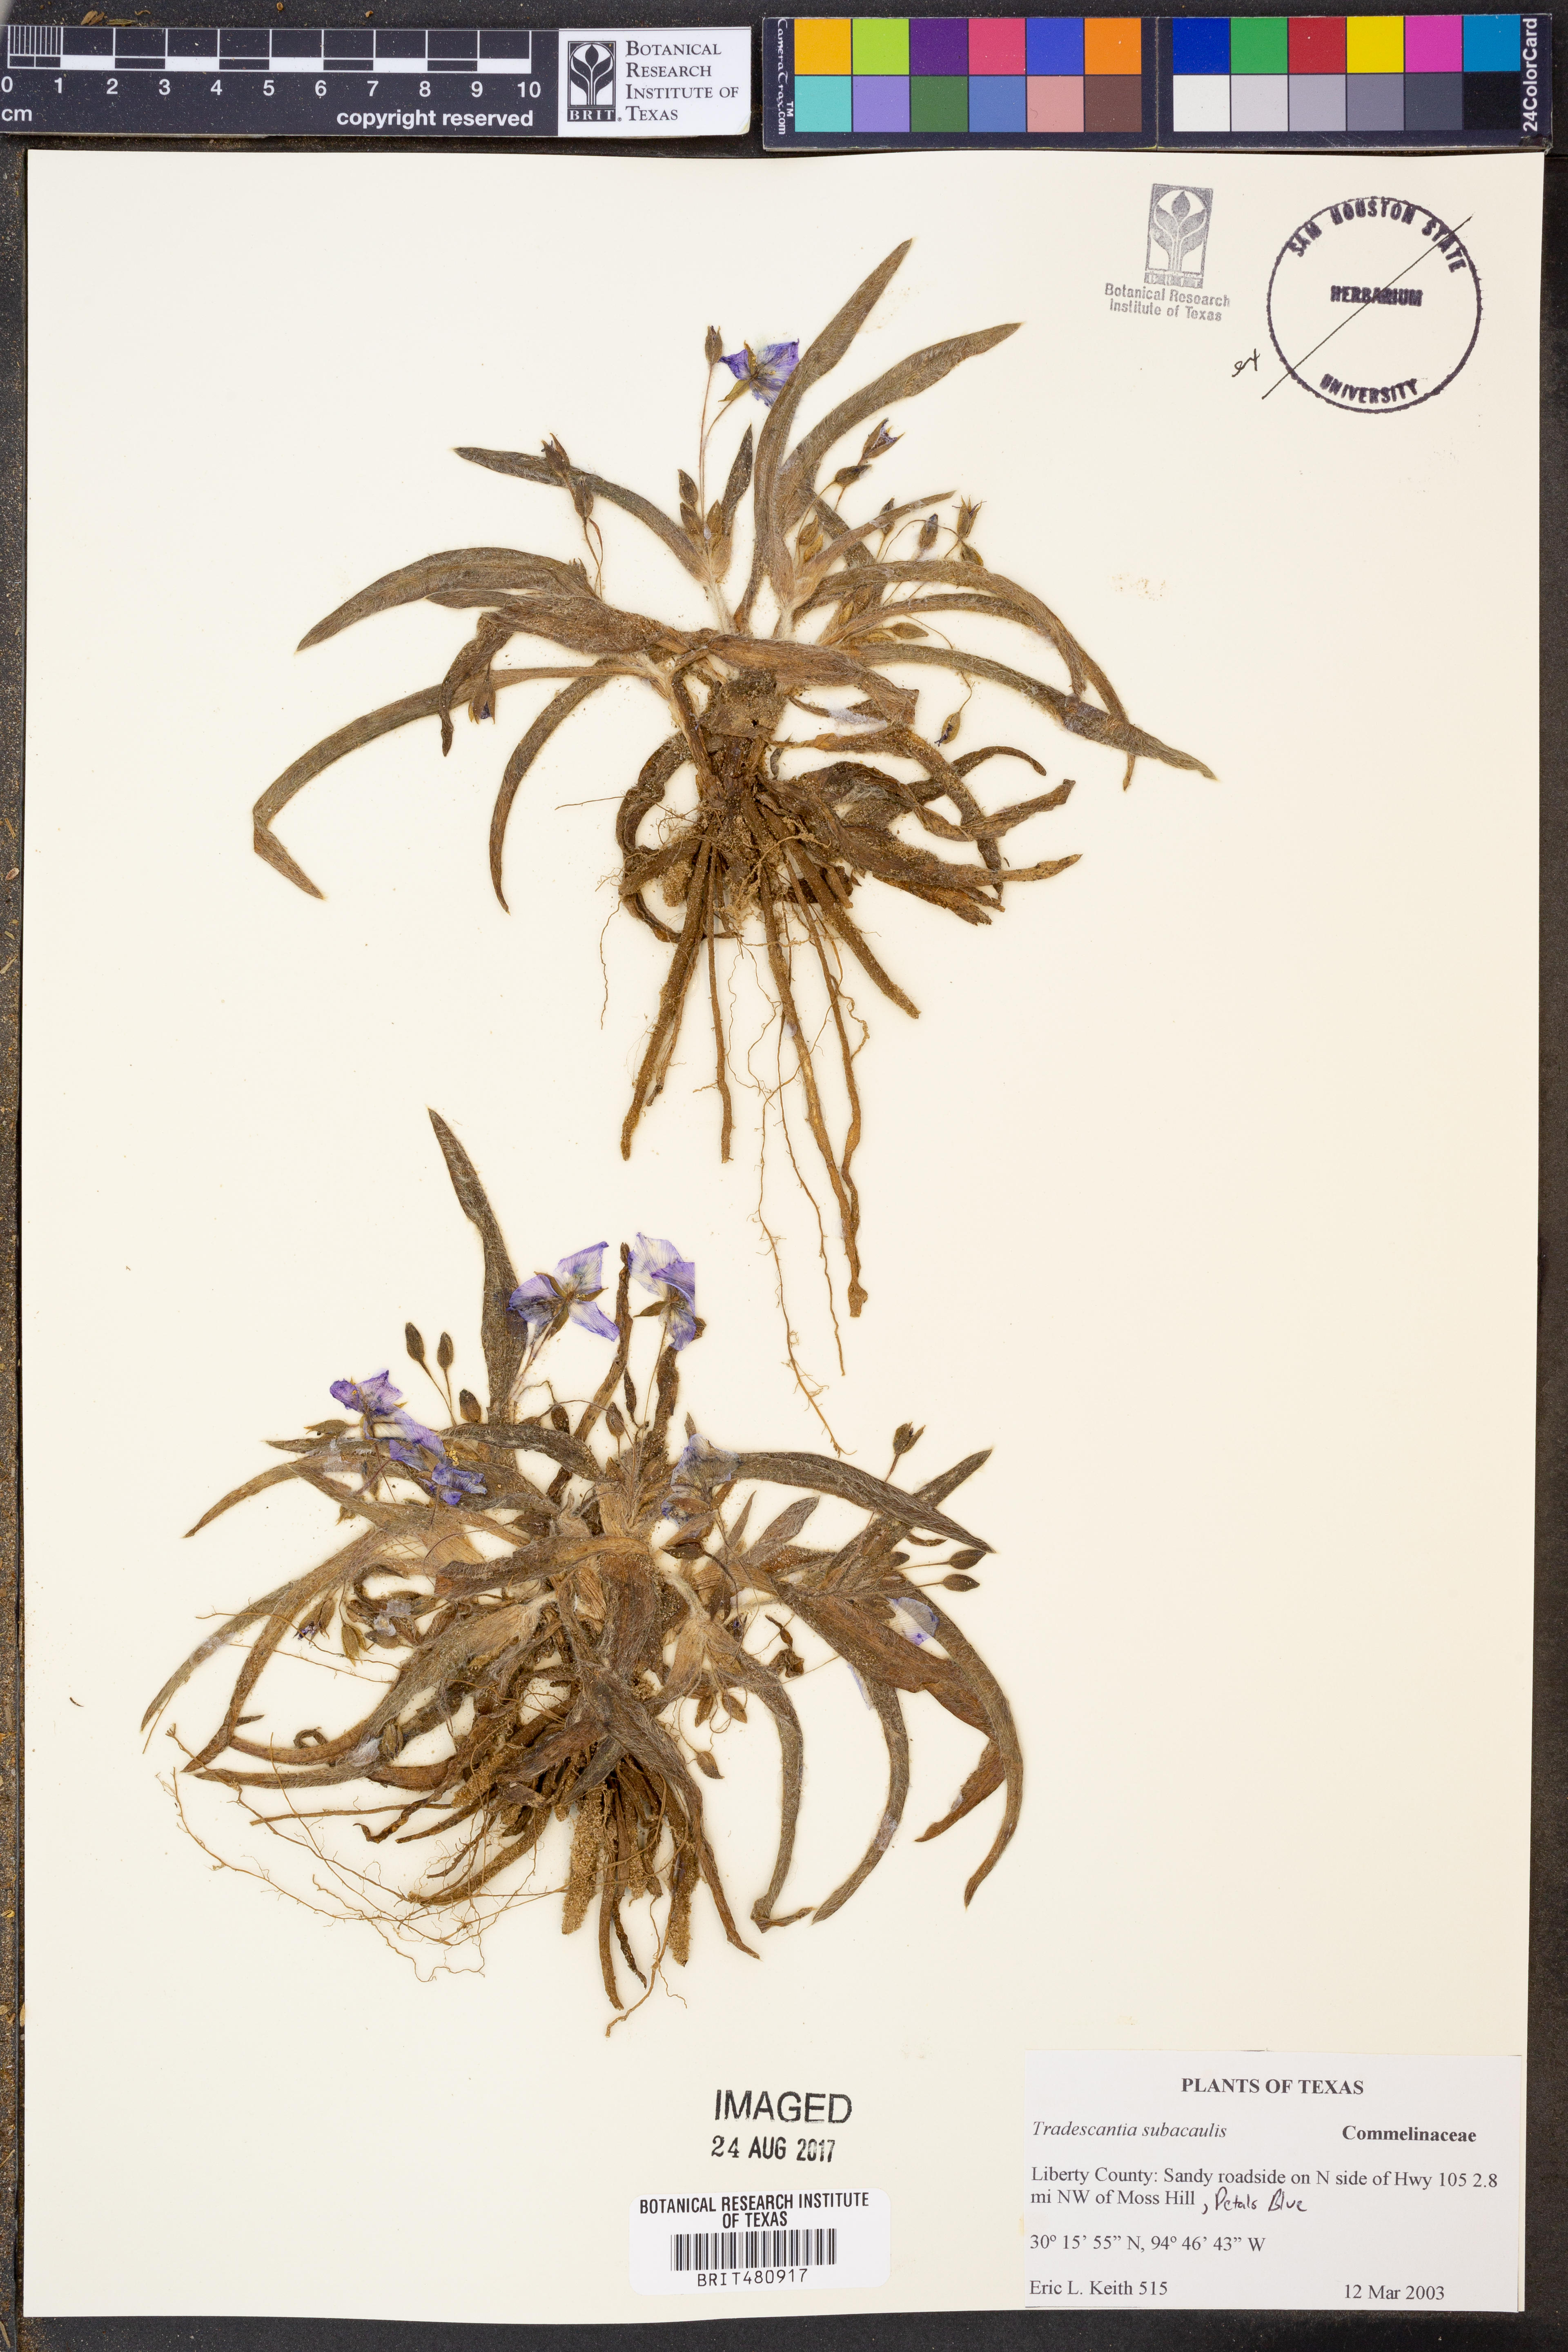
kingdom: Plantae
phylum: Tracheophyta
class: Liliopsida
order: Commelinales
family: Commelinaceae
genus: Tradescantia
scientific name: Tradescantia subacaulis
